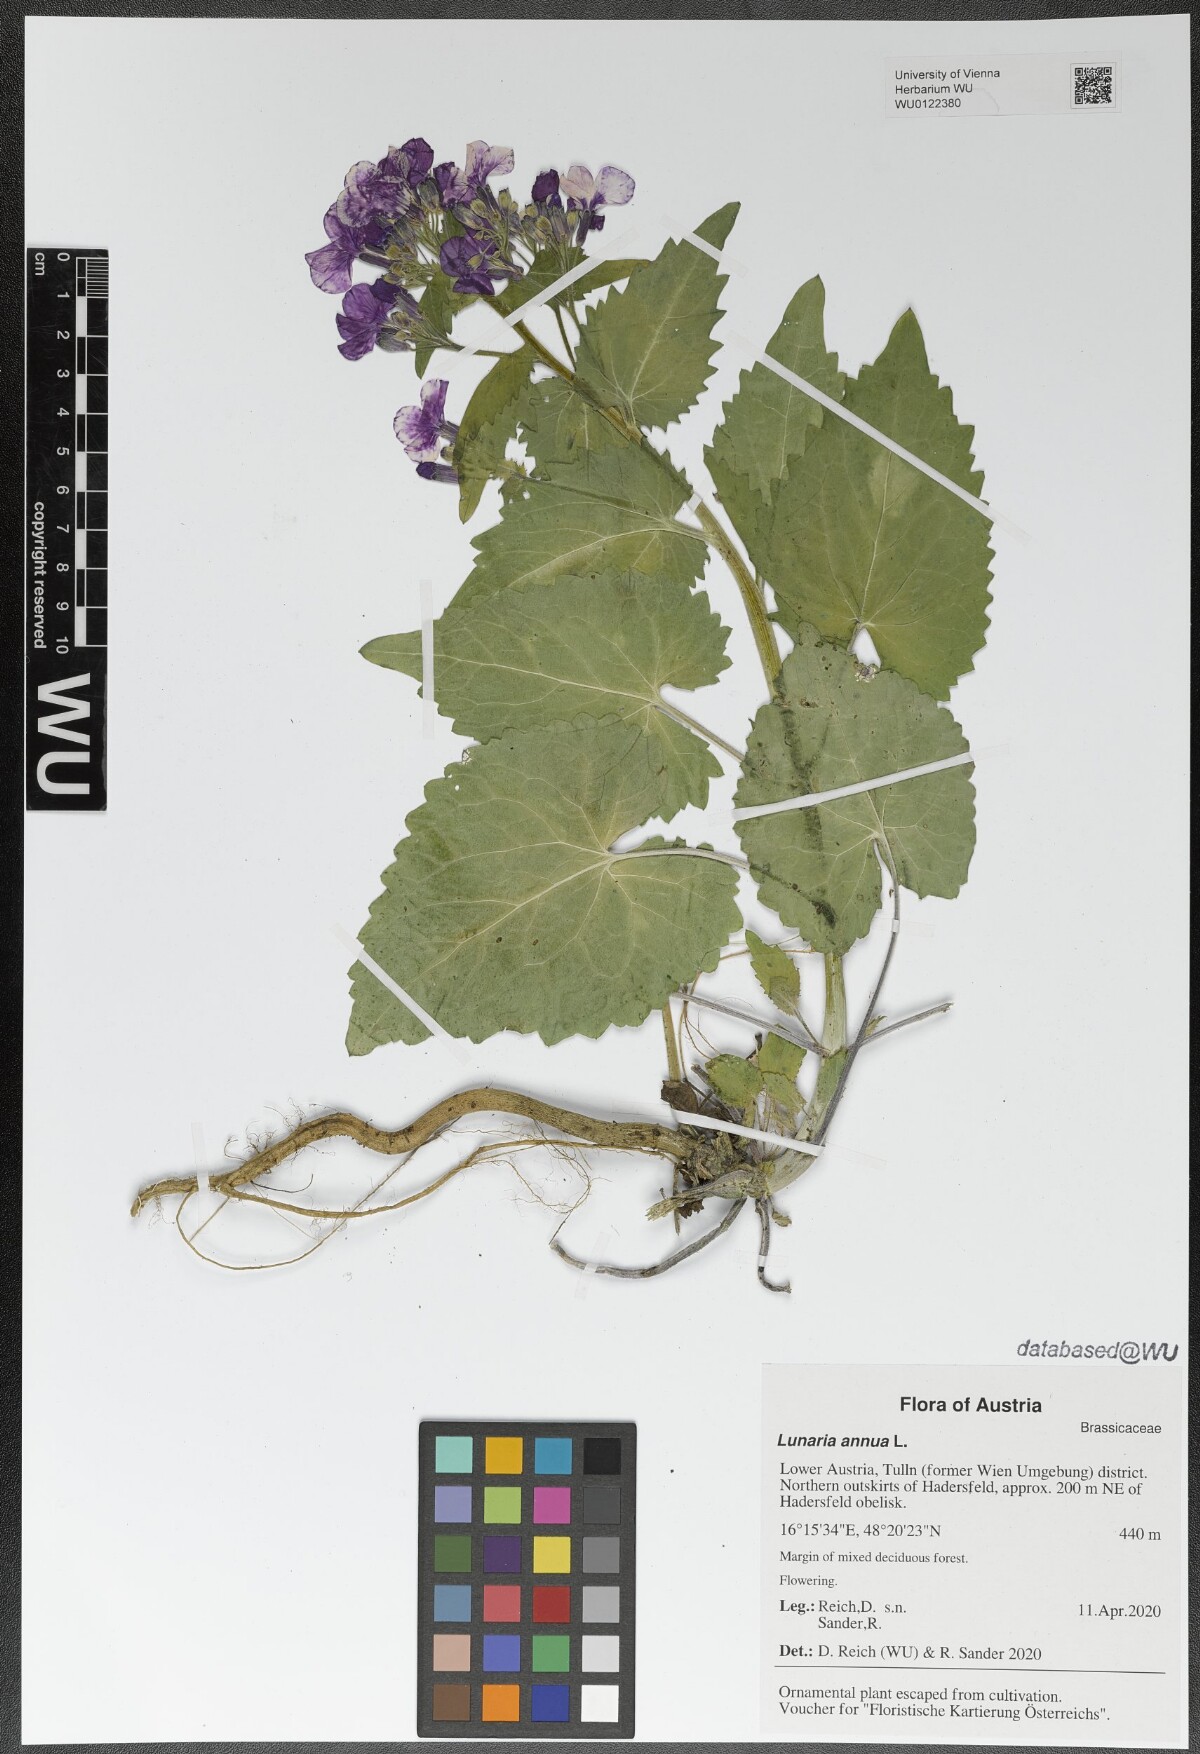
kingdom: Plantae
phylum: Tracheophyta
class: Magnoliopsida
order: Brassicales
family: Brassicaceae
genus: Lunaria
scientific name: Lunaria annua
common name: Honesty
